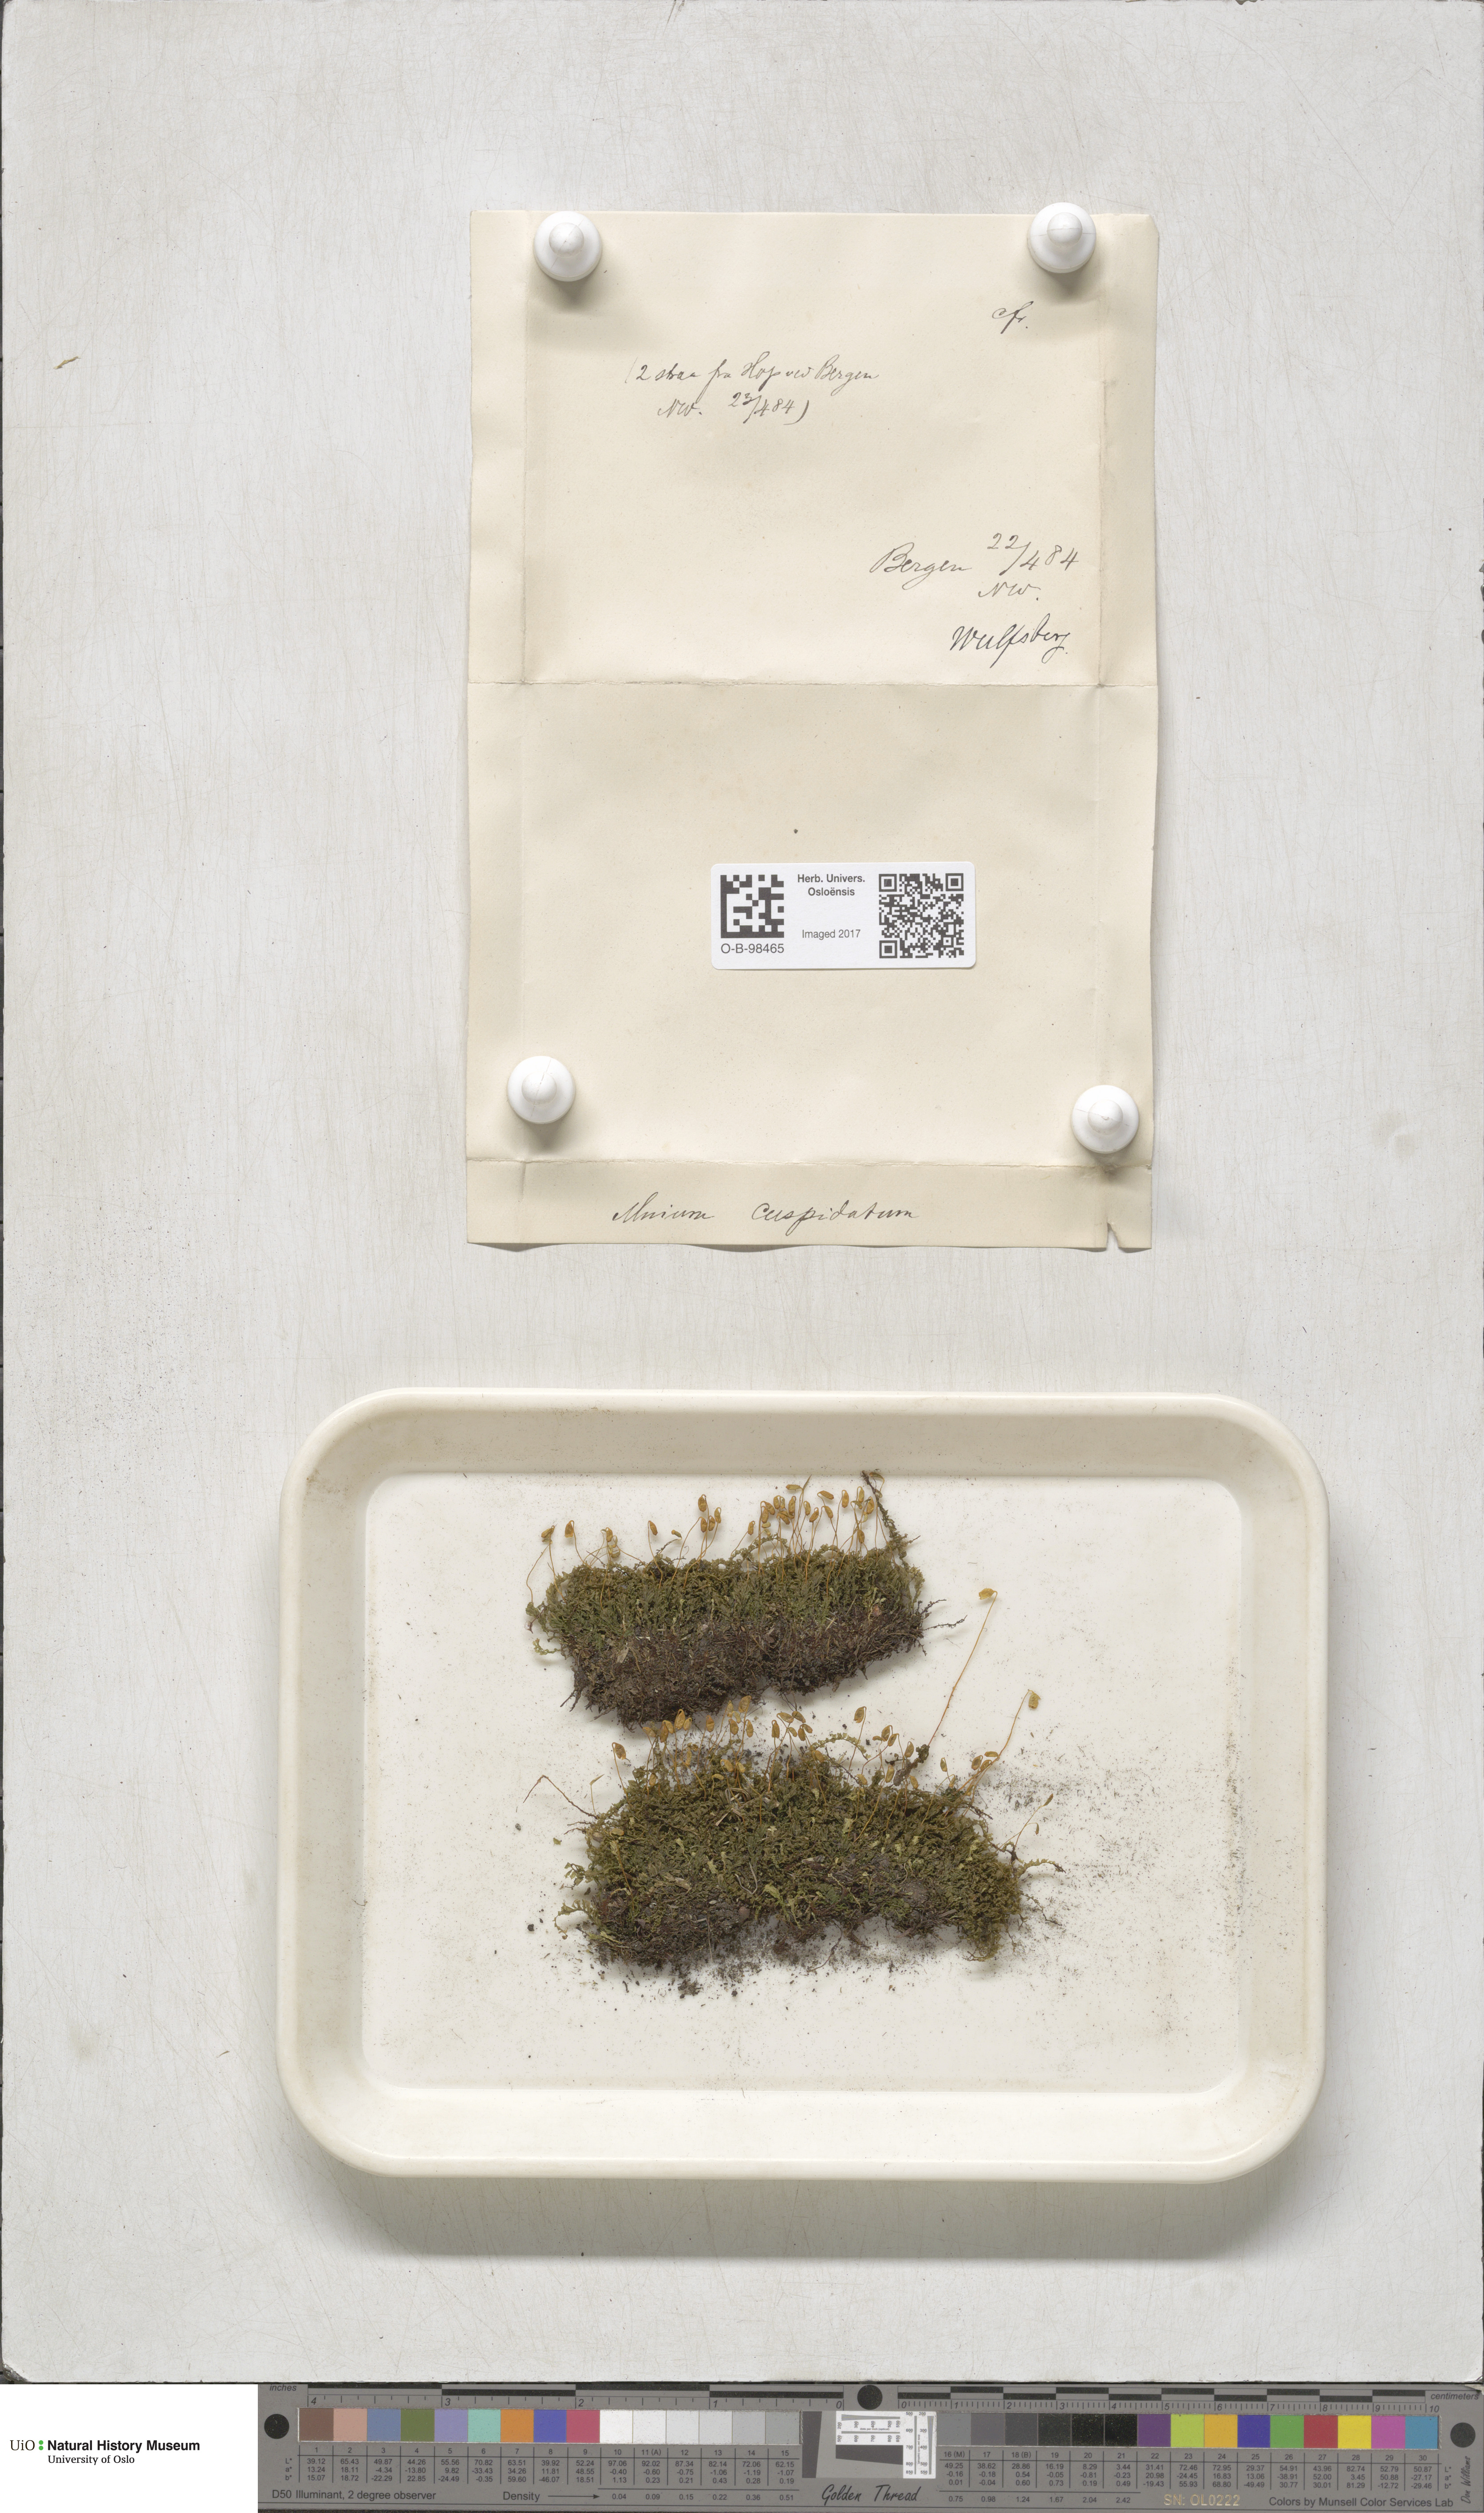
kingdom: Plantae
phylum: Bryophyta
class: Bryopsida
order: Bryales
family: Mniaceae
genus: Plagiomnium
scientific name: Plagiomnium cuspidatum
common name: Woodsy leafy moss
